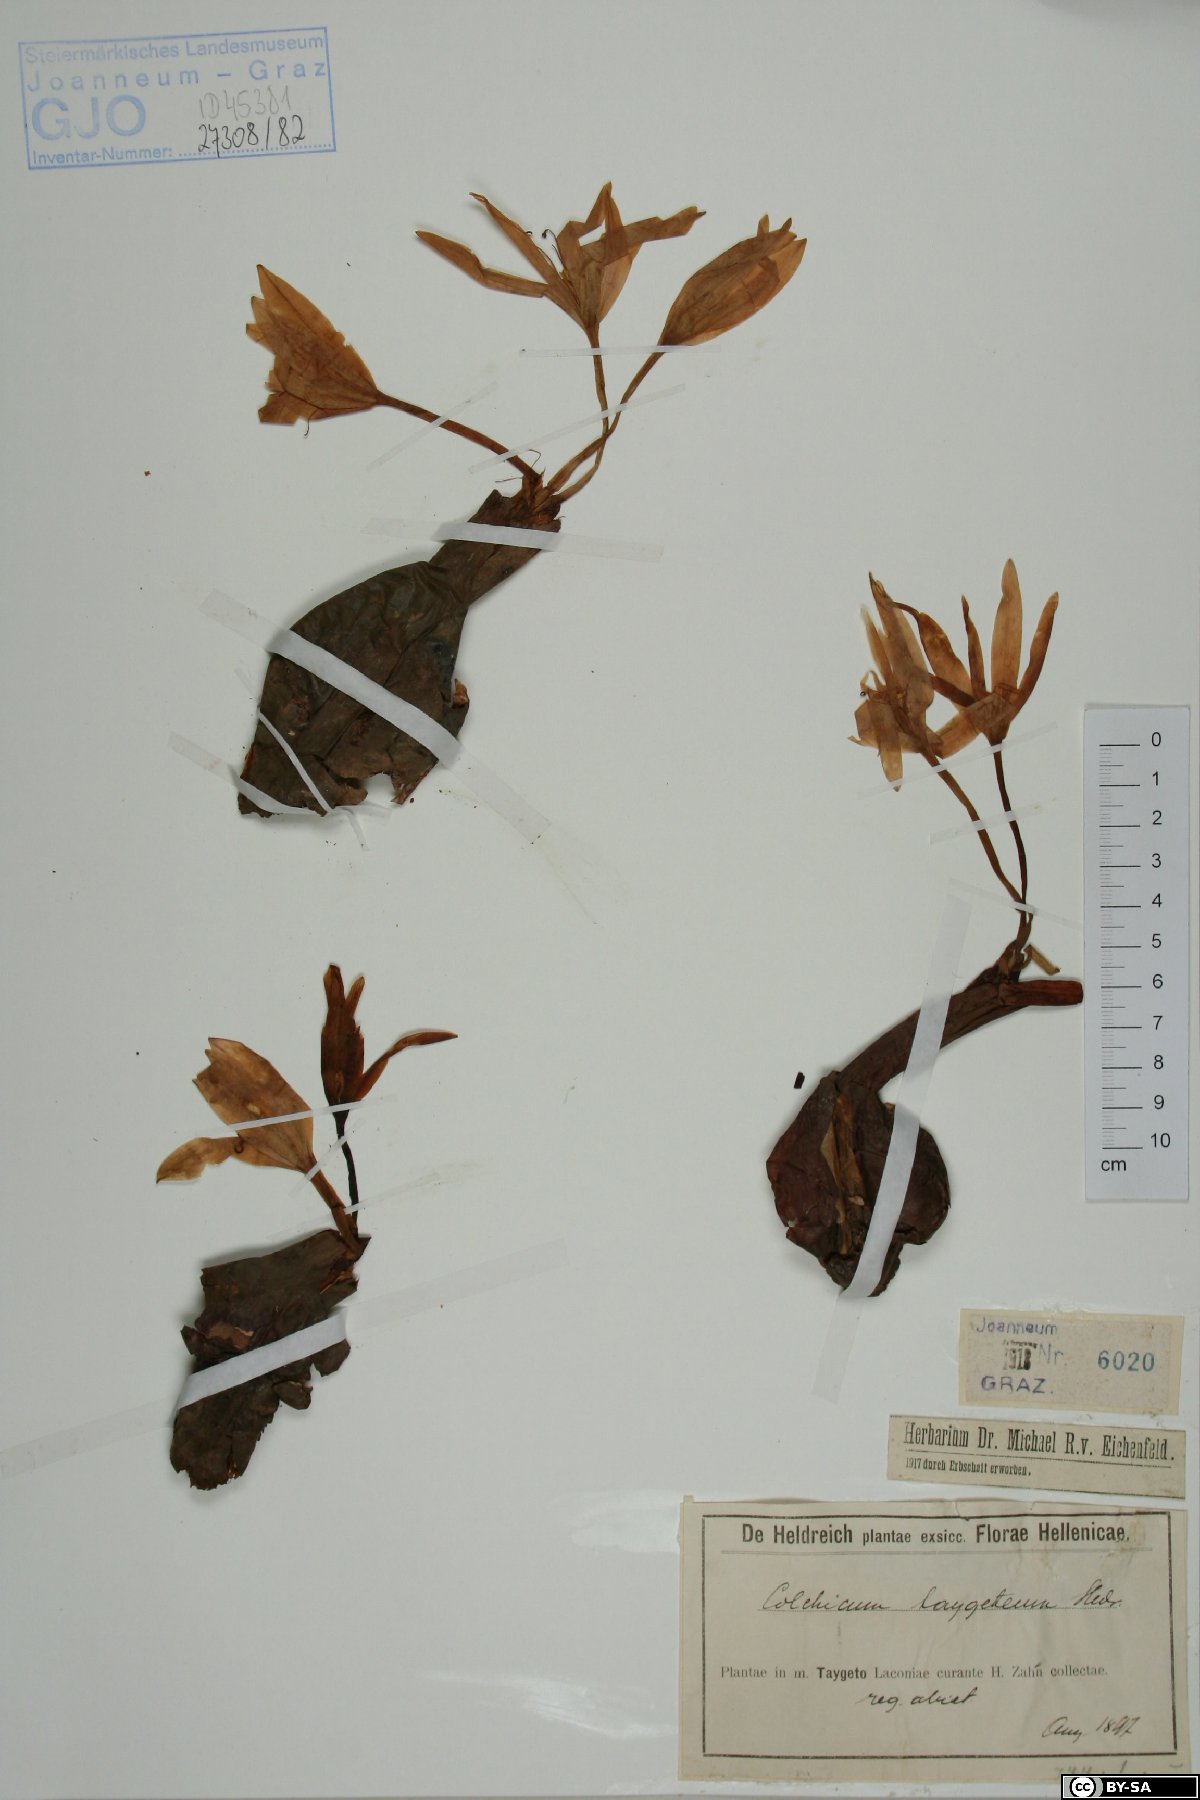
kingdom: Plantae
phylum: Tracheophyta
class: Liliopsida
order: Liliales
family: Colchicaceae
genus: Colchicum
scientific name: Colchicum
